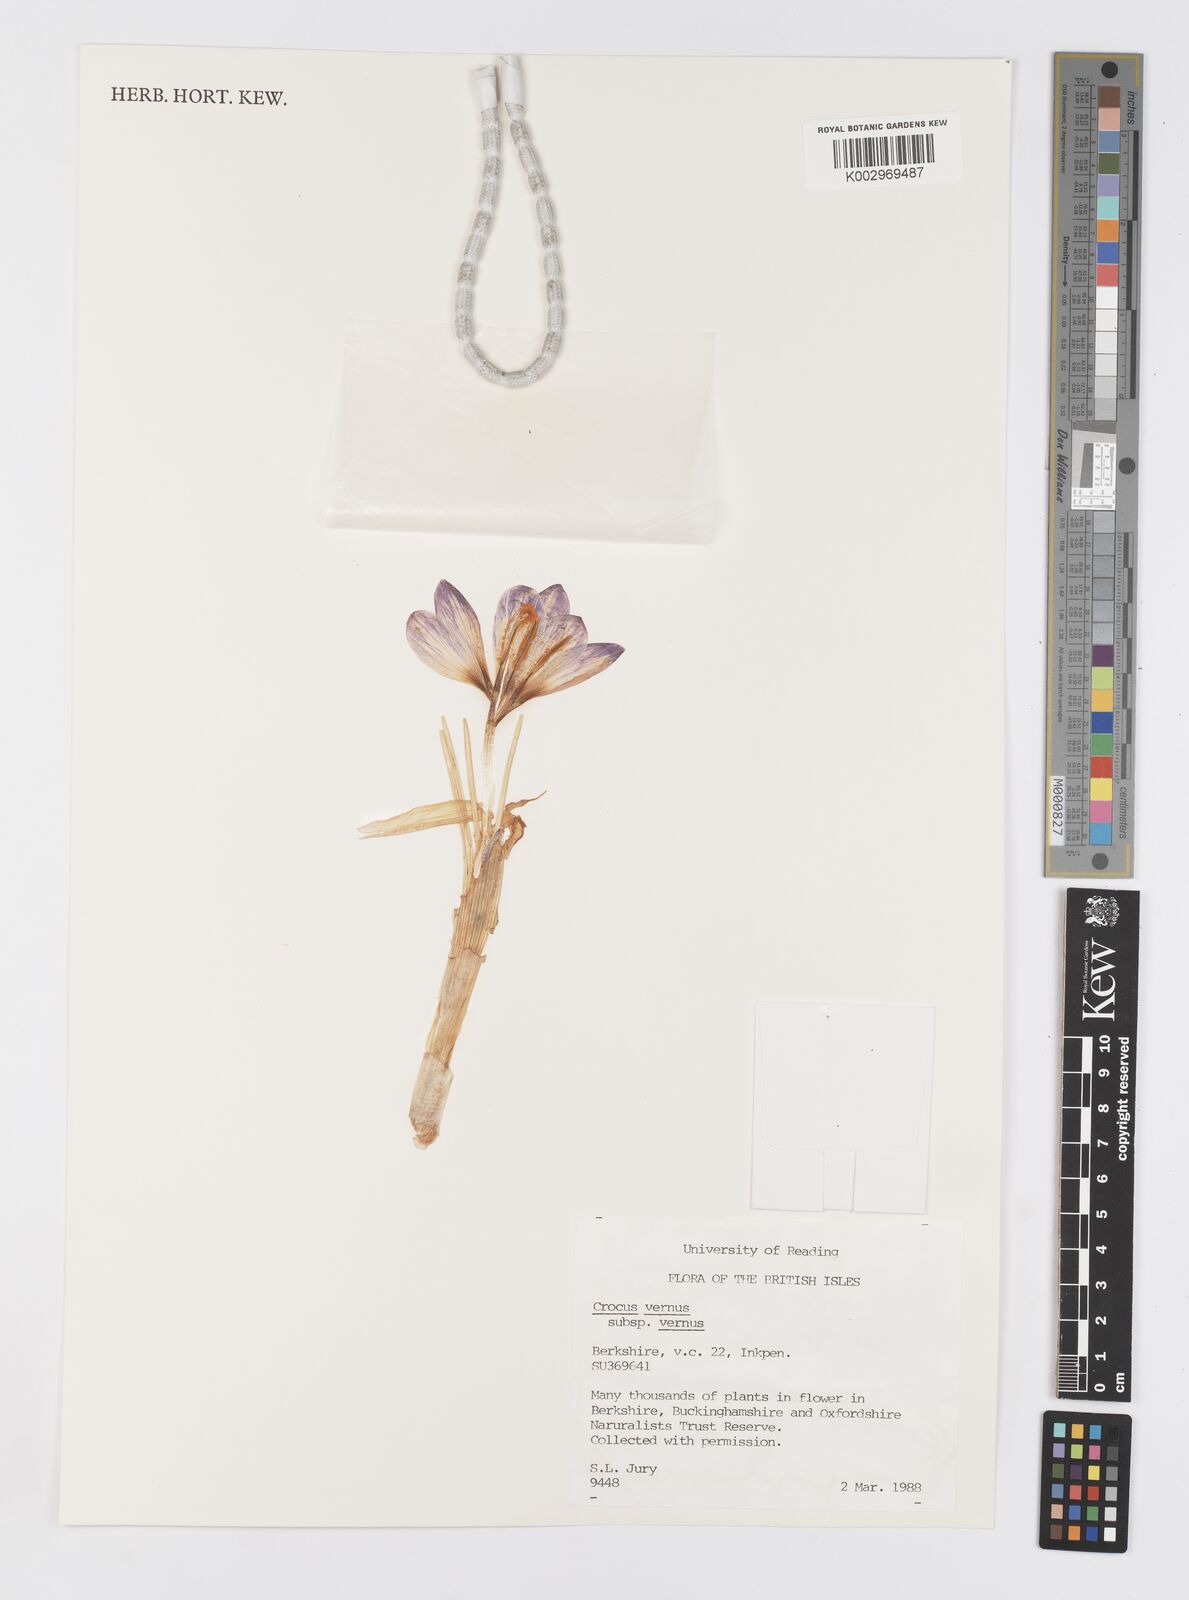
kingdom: Plantae
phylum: Tracheophyta
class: Liliopsida
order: Asparagales
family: Iridaceae
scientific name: Iridaceae
